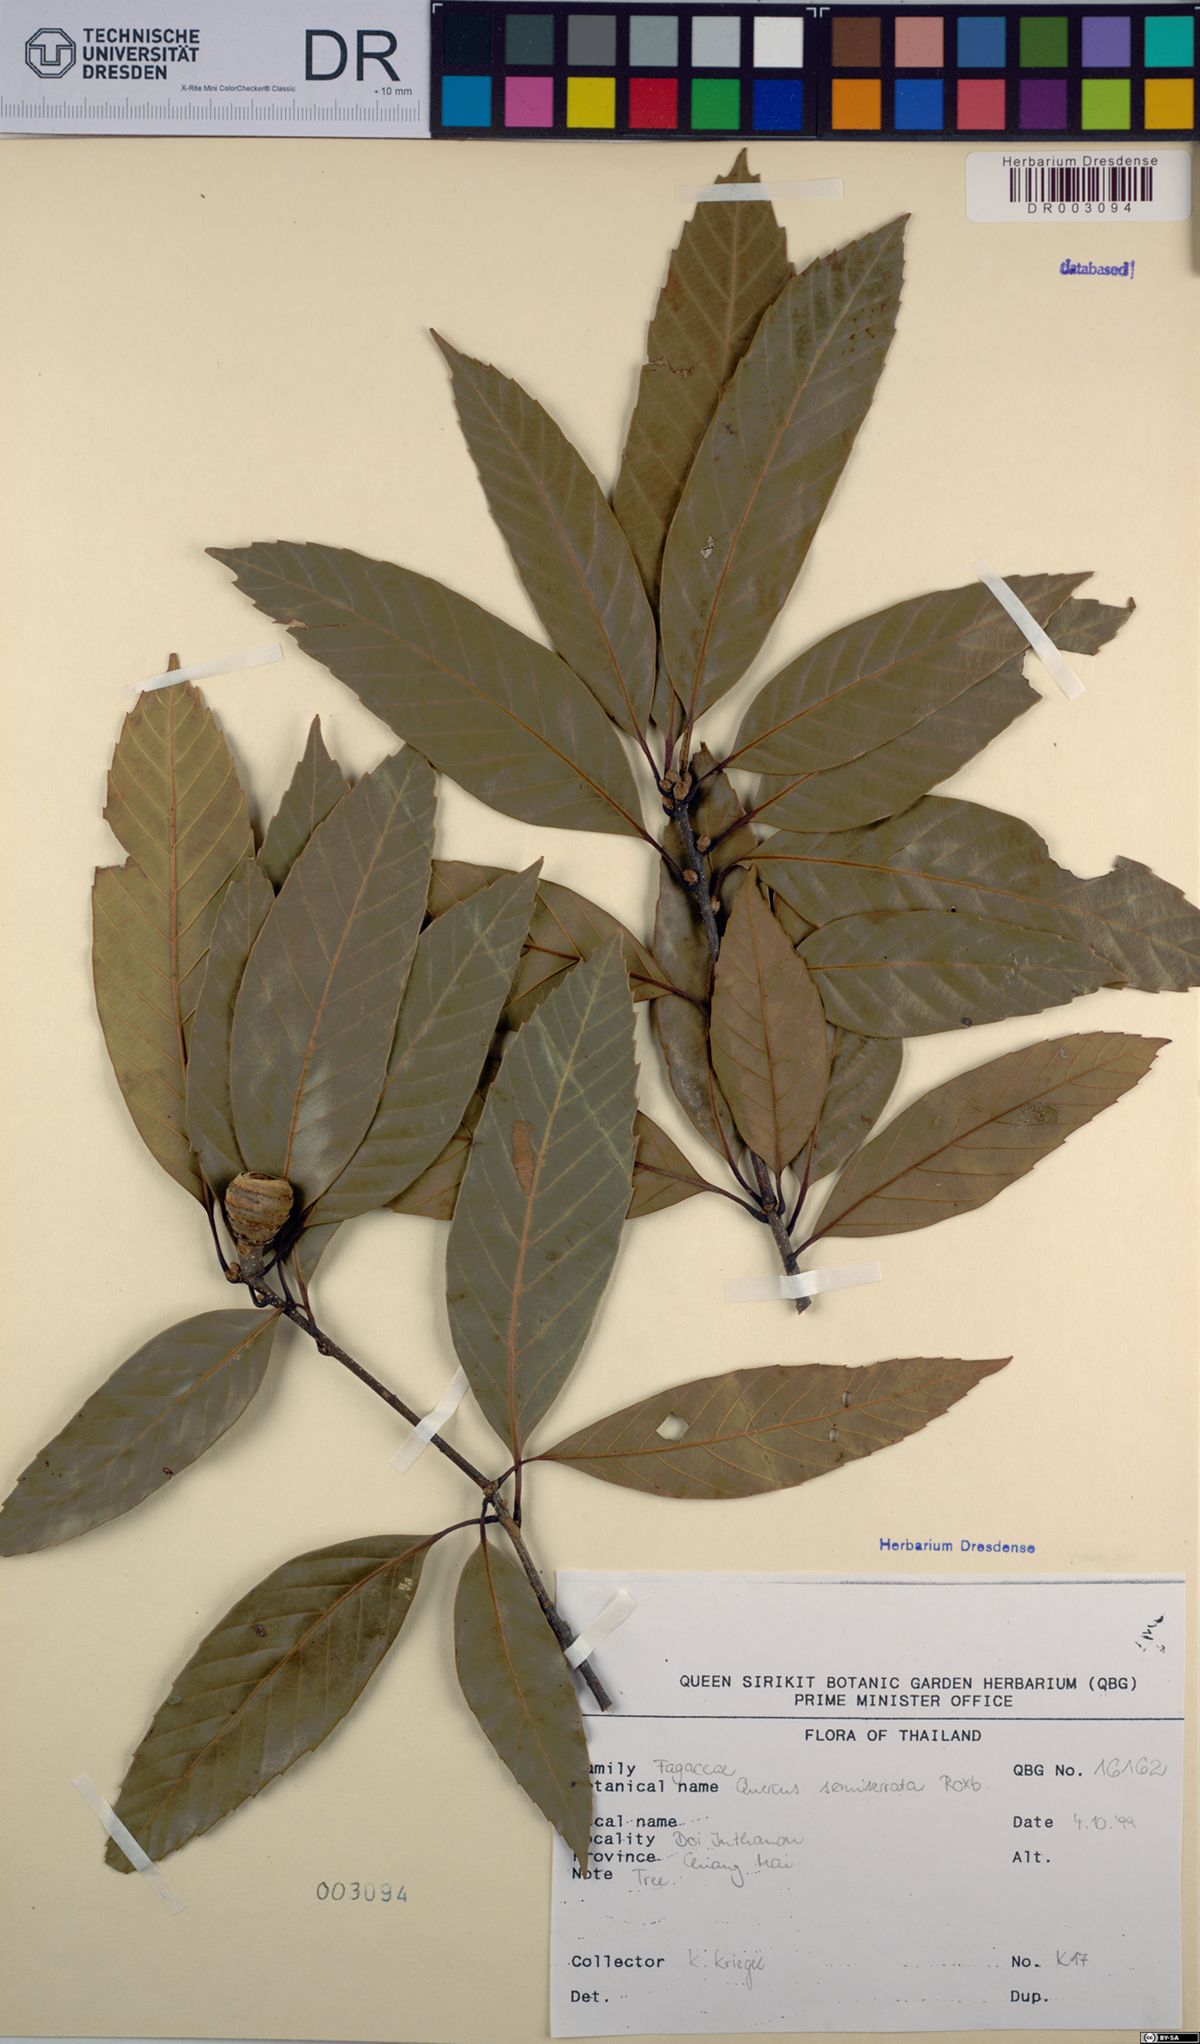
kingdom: Plantae
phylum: Tracheophyta
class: Magnoliopsida
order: Fagales
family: Fagaceae
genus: Quercus
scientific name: Quercus semiserrata
